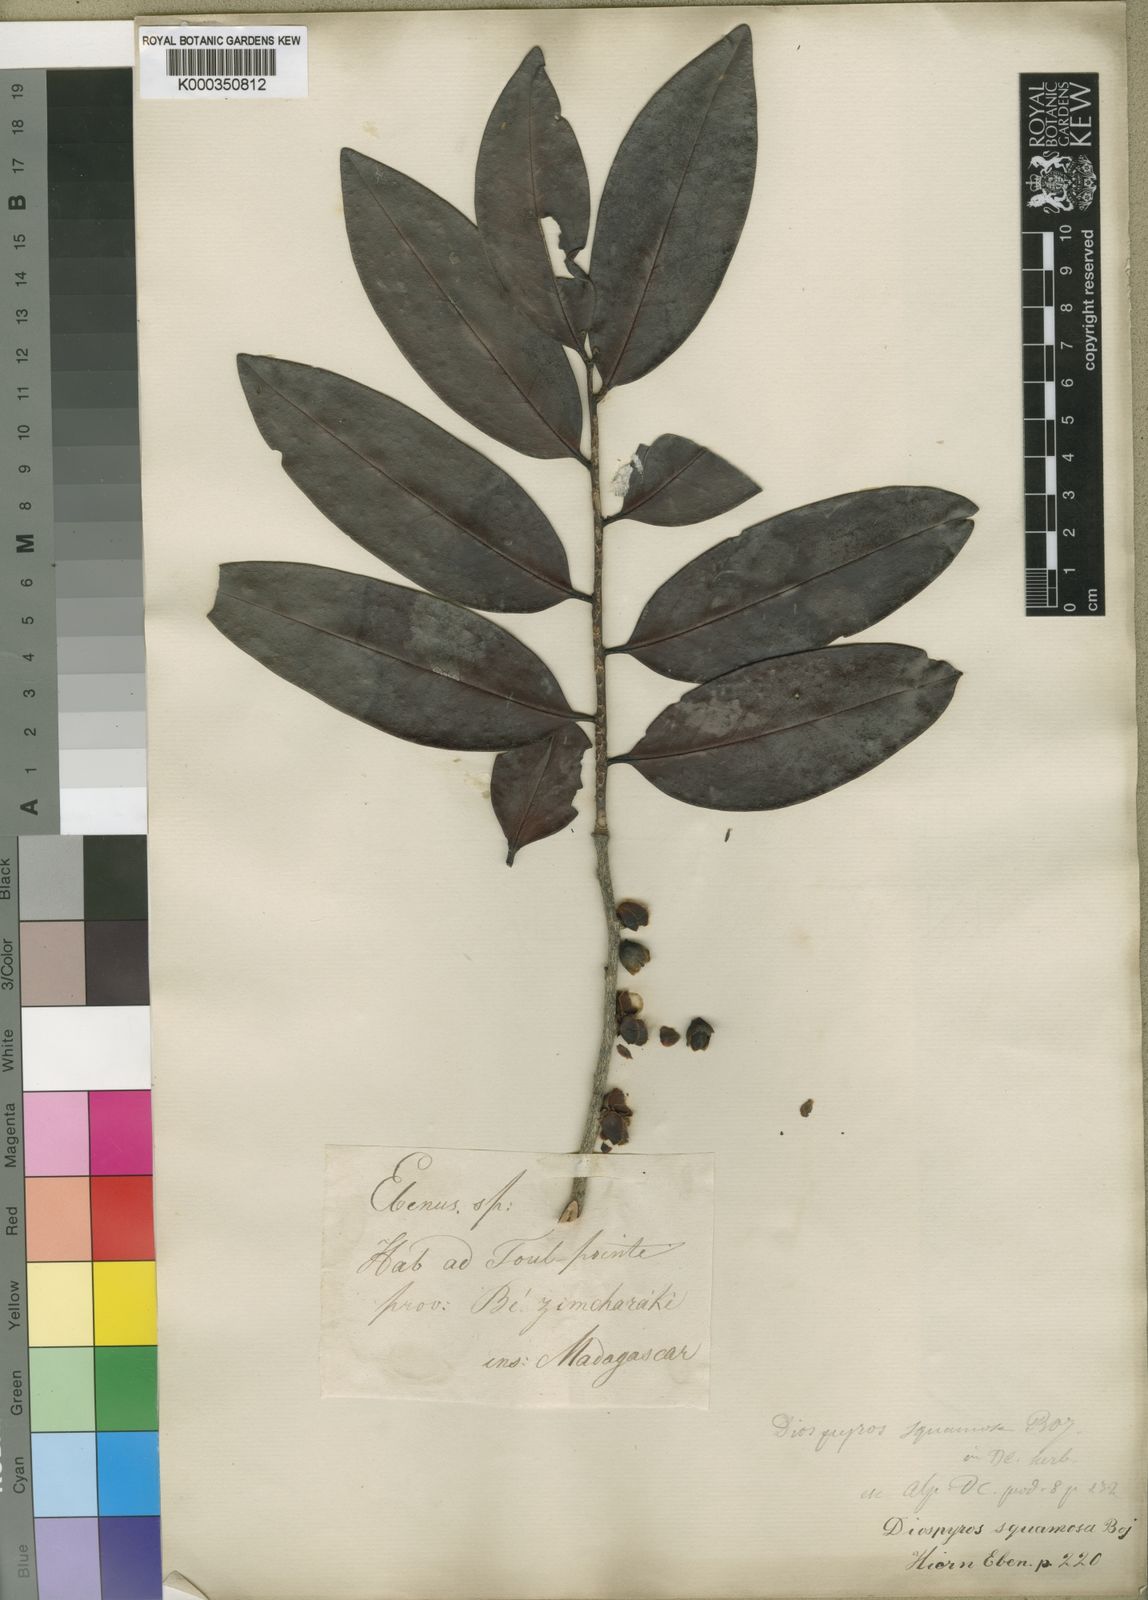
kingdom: Plantae
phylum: Tracheophyta
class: Magnoliopsida
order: Ericales
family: Ebenaceae
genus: Diospyros
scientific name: Diospyros squamosa
